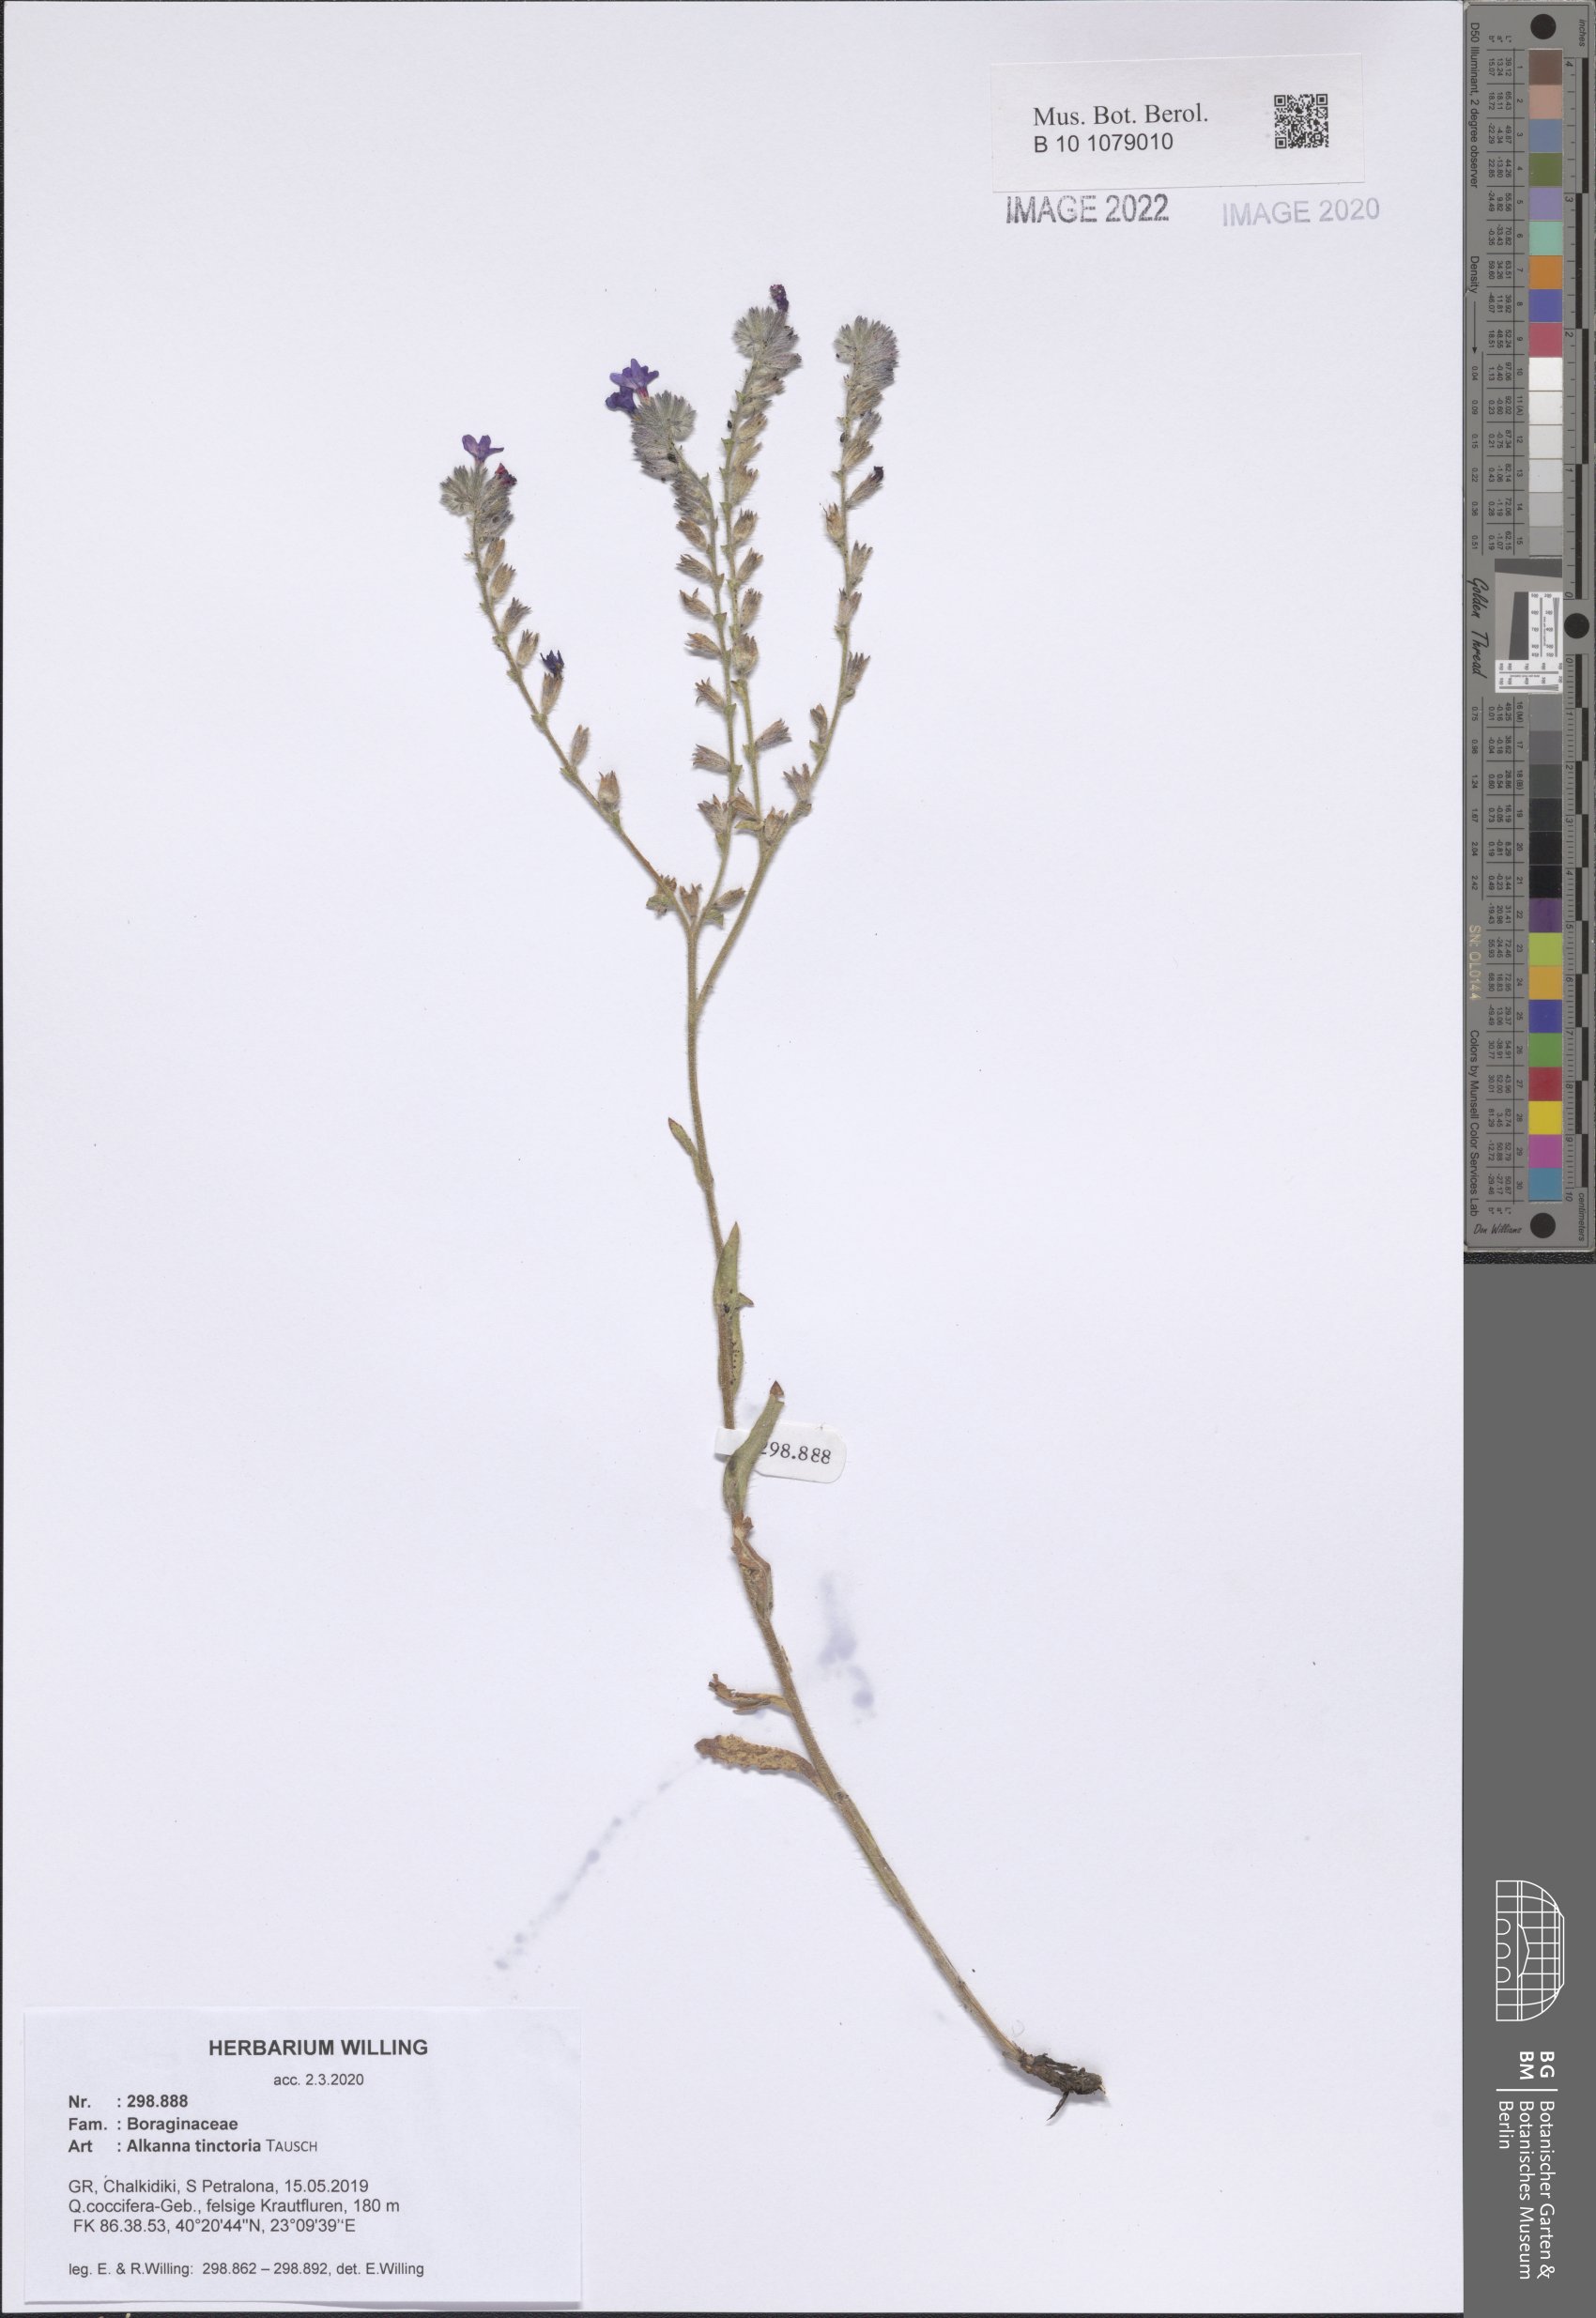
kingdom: Plantae
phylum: Tracheophyta
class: Magnoliopsida
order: Boraginales
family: Boraginaceae
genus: Alkanna
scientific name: Alkanna tinctoria
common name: Dyer's-alkanet
